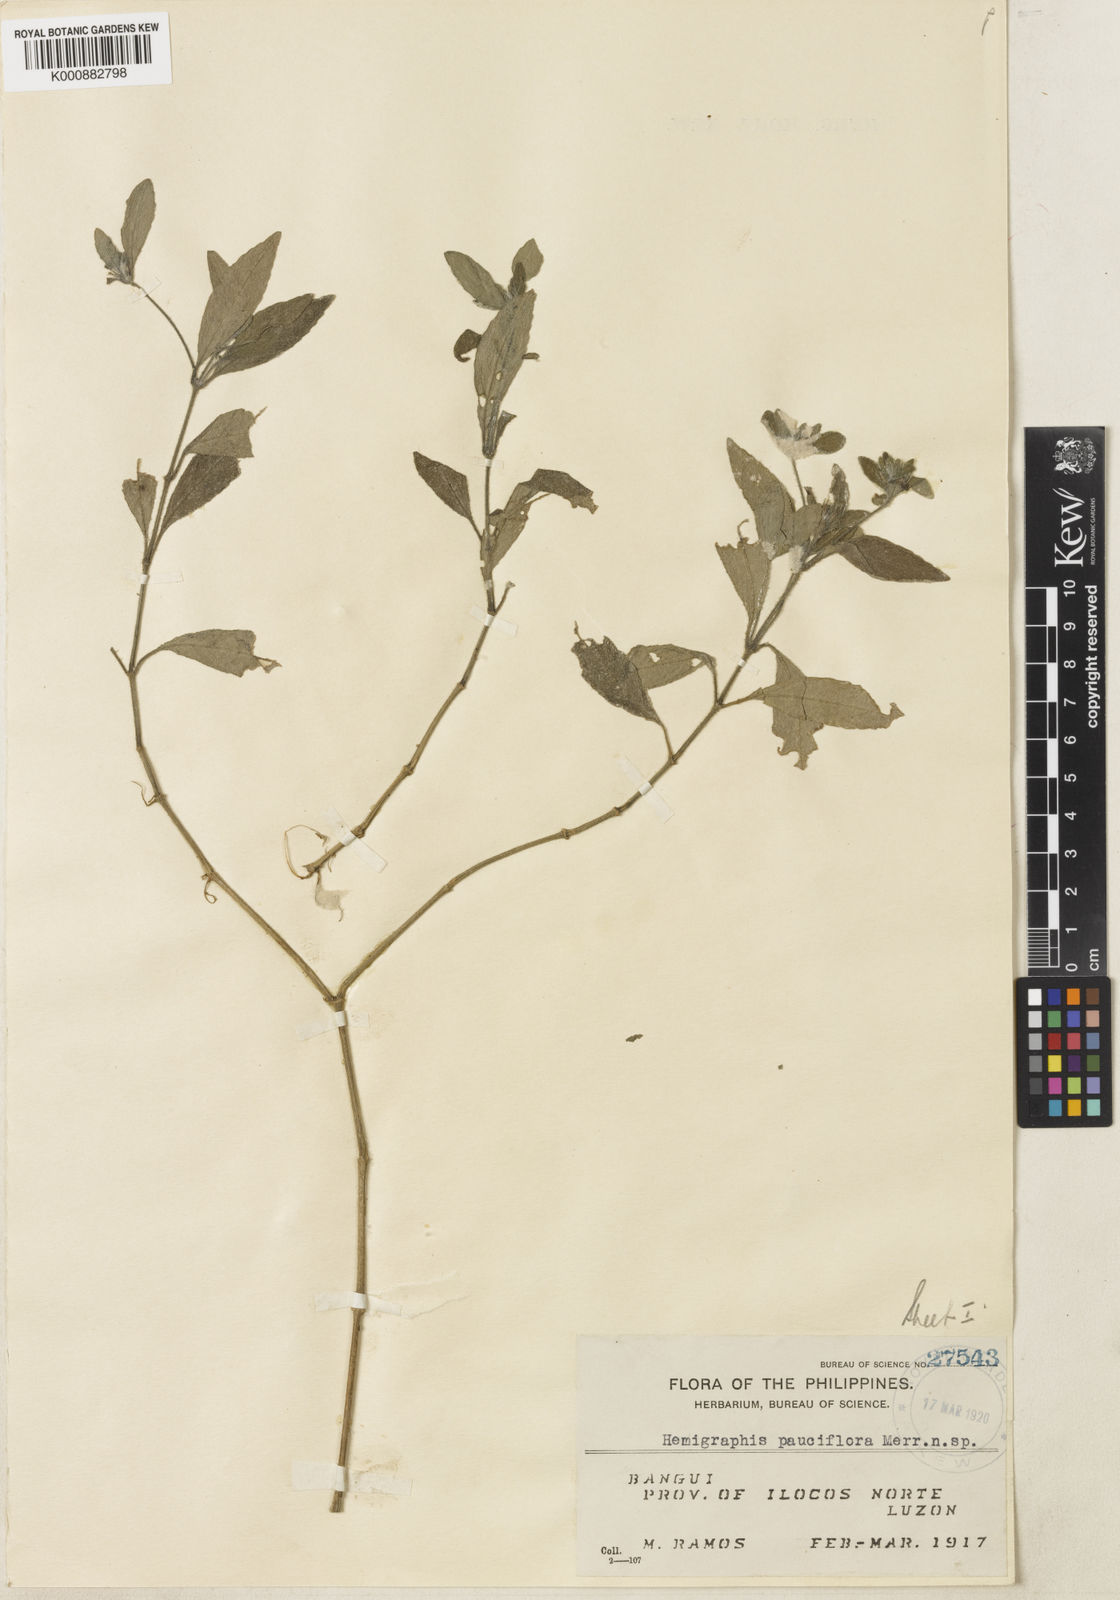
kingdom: Plantae
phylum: Tracheophyta
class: Magnoliopsida
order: Lamiales
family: Acanthaceae
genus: Strobilanthes
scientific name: Strobilanthes pauciflora
